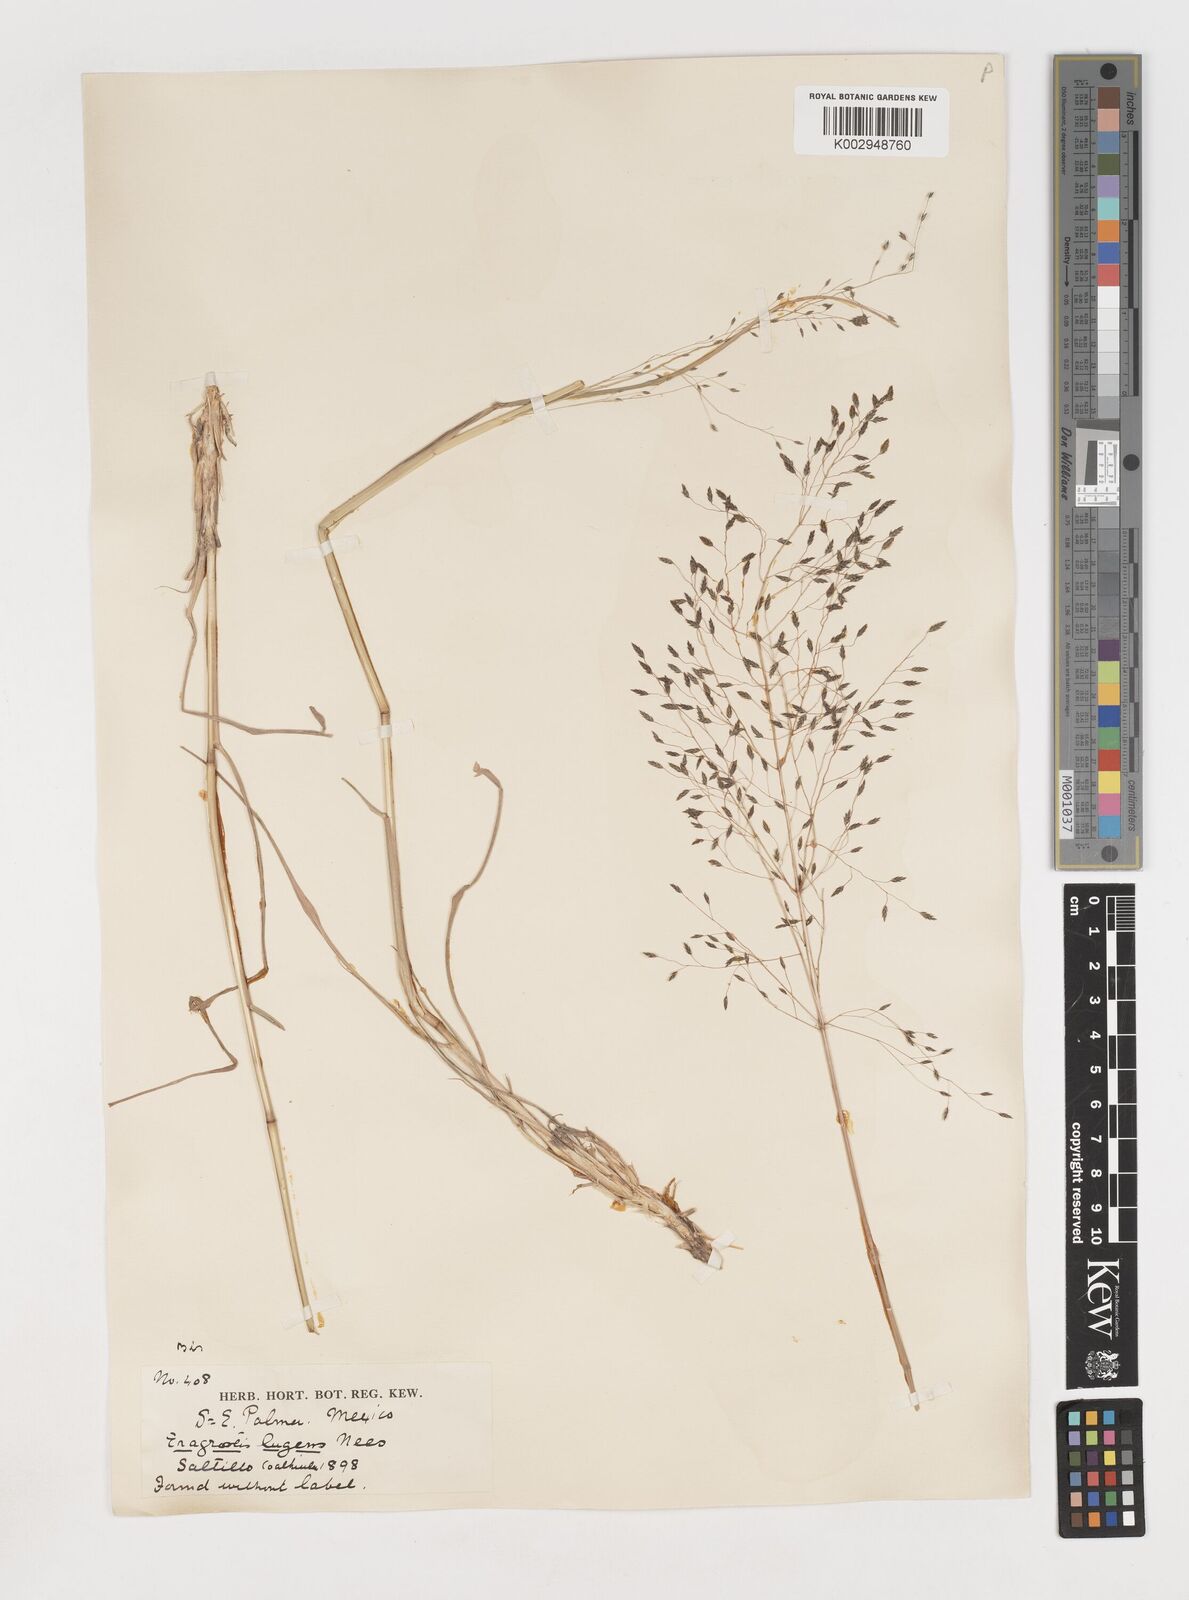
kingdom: Plantae
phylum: Tracheophyta
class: Liliopsida
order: Poales
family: Poaceae
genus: Eragrostis
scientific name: Eragrostis
